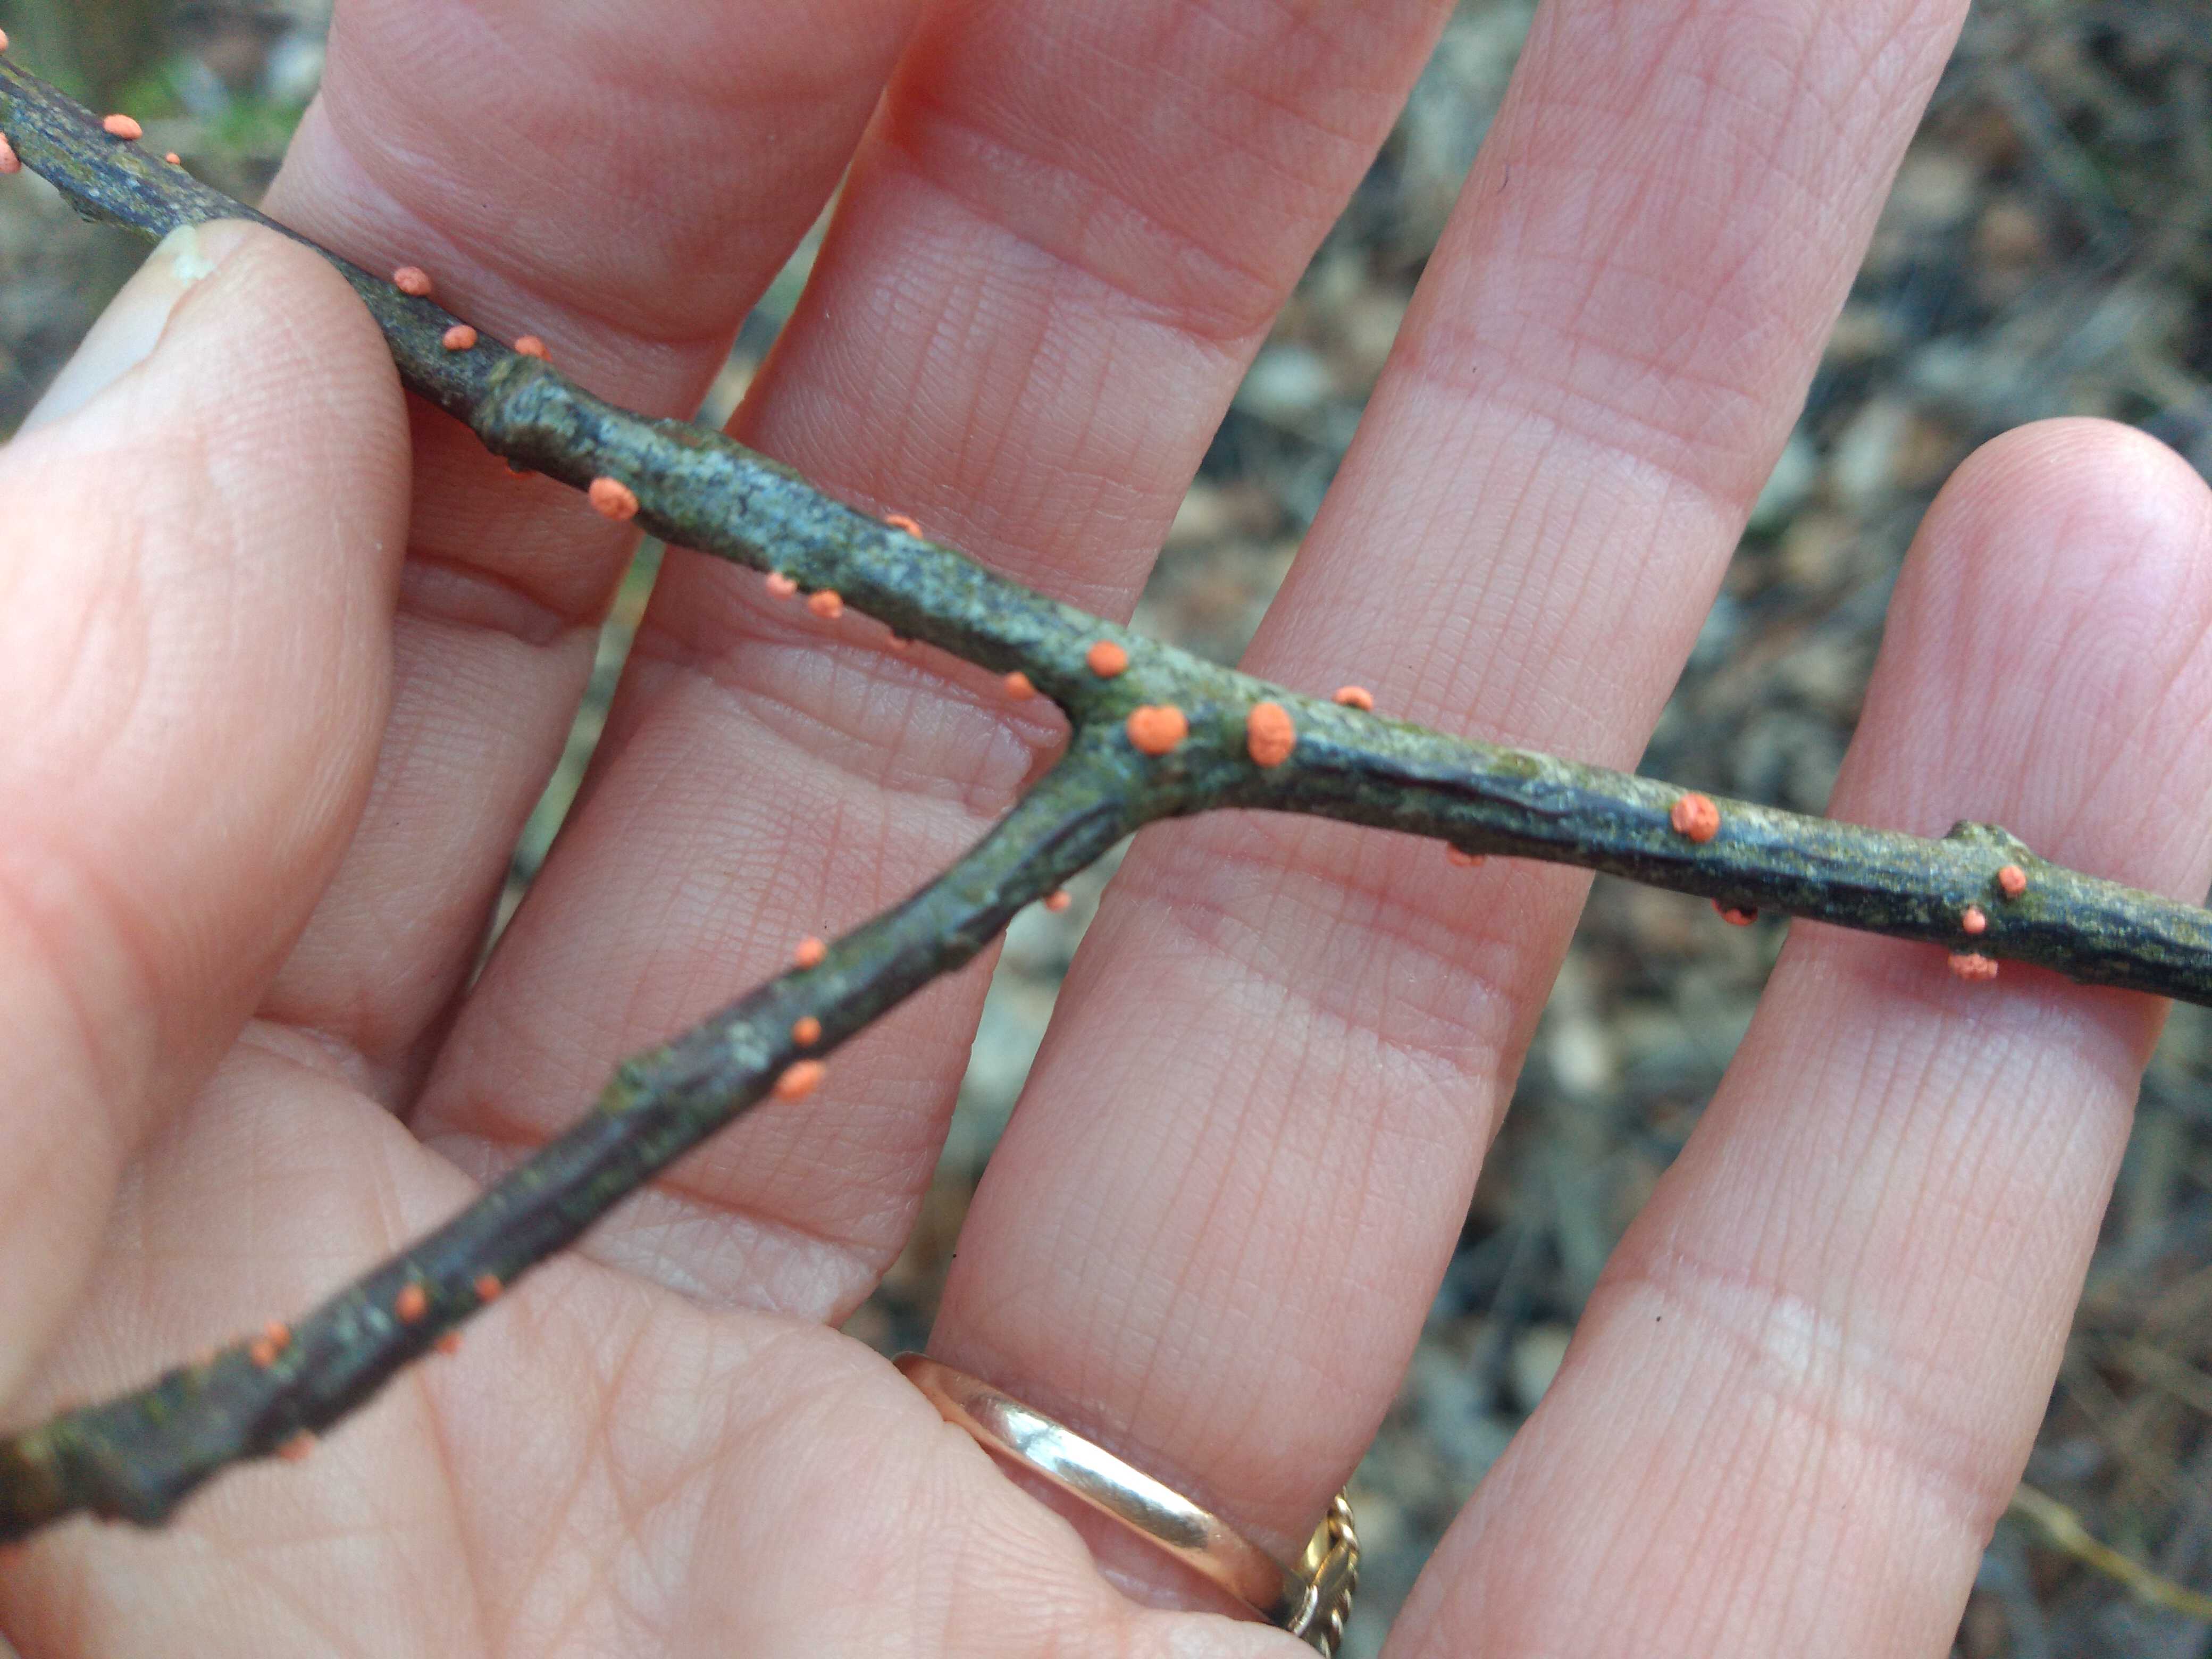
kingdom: Fungi
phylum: Ascomycota
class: Sordariomycetes
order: Hypocreales
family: Nectriaceae
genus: Nectria
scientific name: Nectria cinnabarina
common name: almindelig cinnobersvamp
